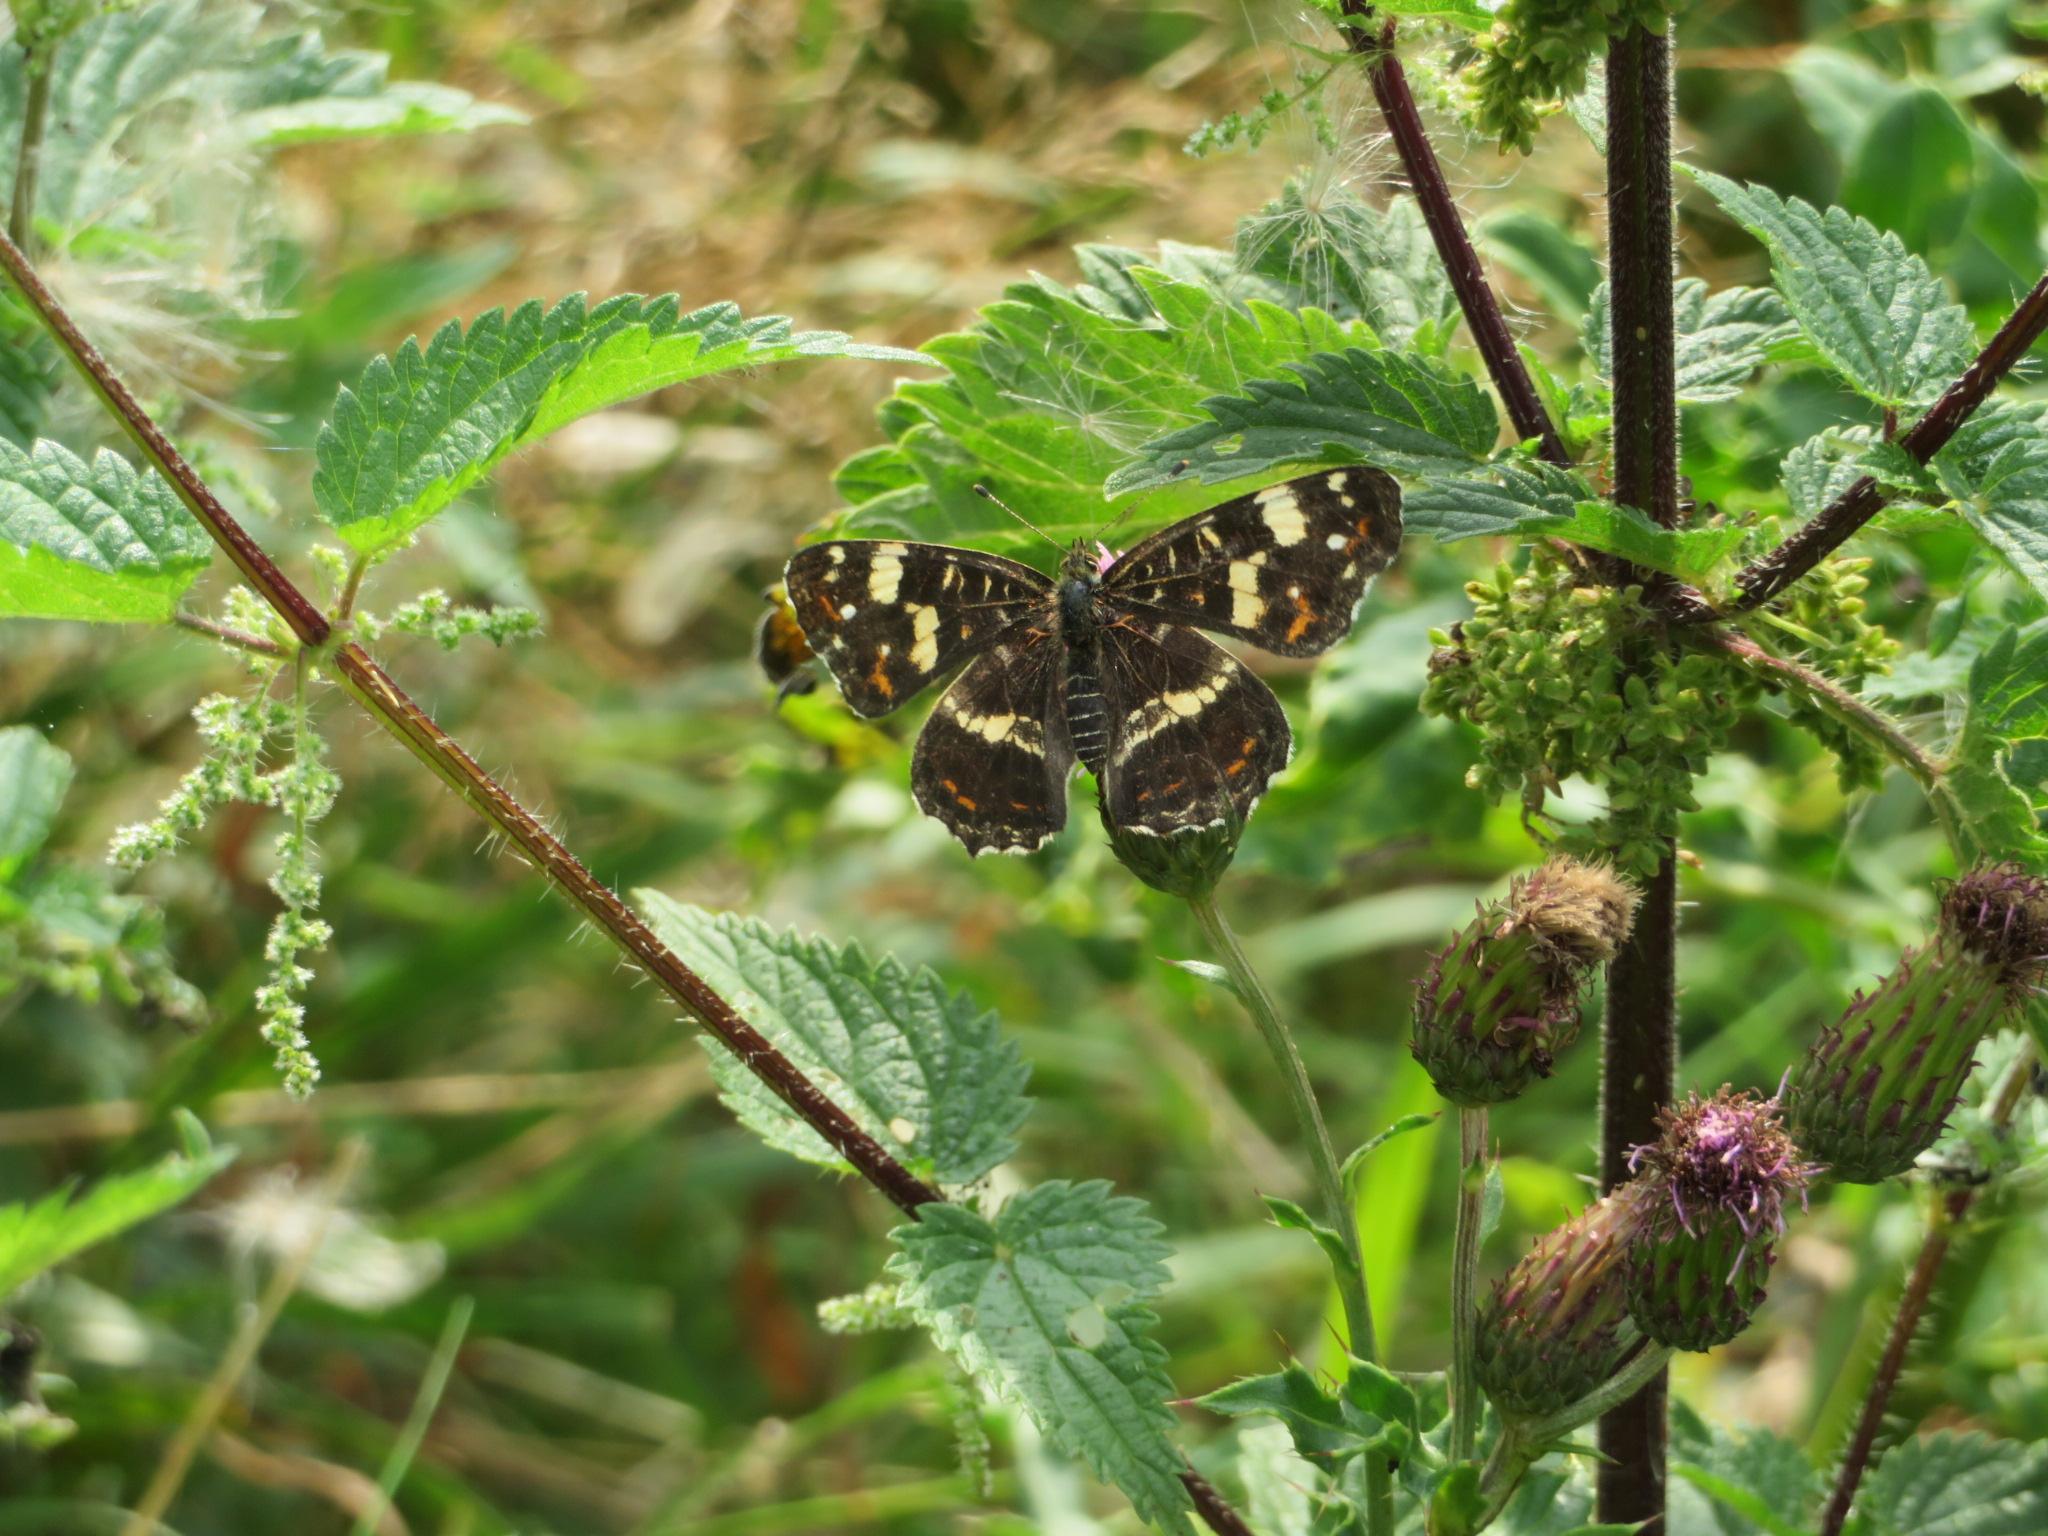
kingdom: Animalia
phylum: Arthropoda
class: Insecta
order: Lepidoptera
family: Nymphalidae
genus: Araschnia
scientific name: Araschnia levana
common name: Nældesommerfugl
